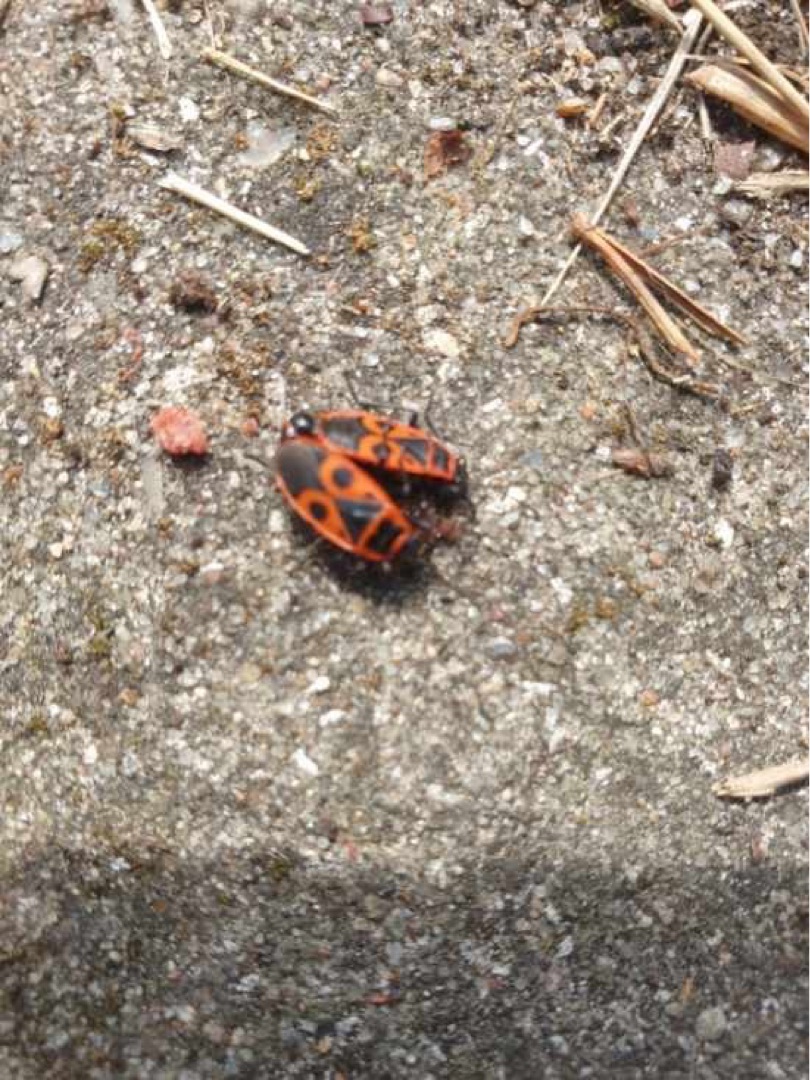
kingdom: Animalia
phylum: Arthropoda
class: Insecta
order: Hemiptera
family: Pyrrhocoridae
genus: Pyrrhocoris
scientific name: Pyrrhocoris apterus
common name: Ildtæge
